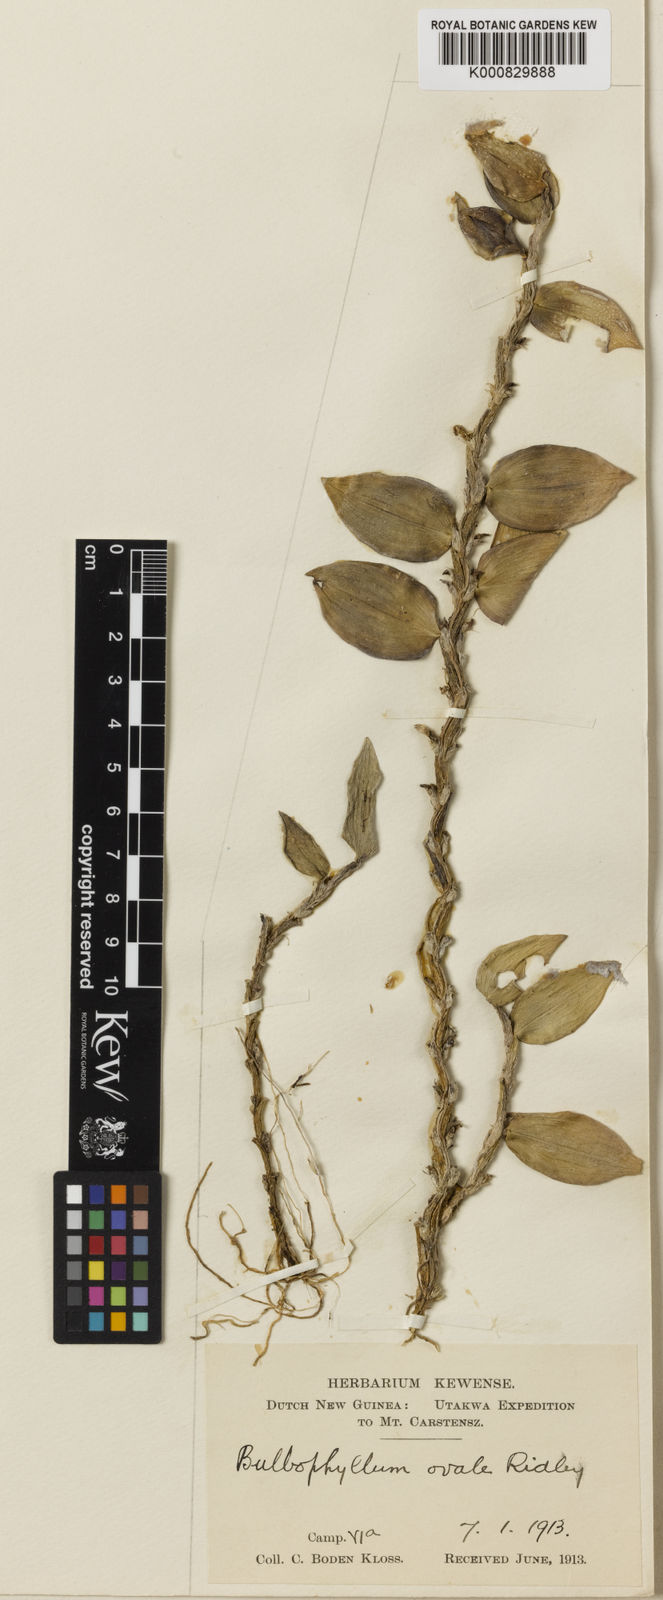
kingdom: Plantae
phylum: Tracheophyta
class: Liliopsida
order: Asparagales
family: Orchidaceae
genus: Bulbophyllum
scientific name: Bulbophyllum oligochaete
